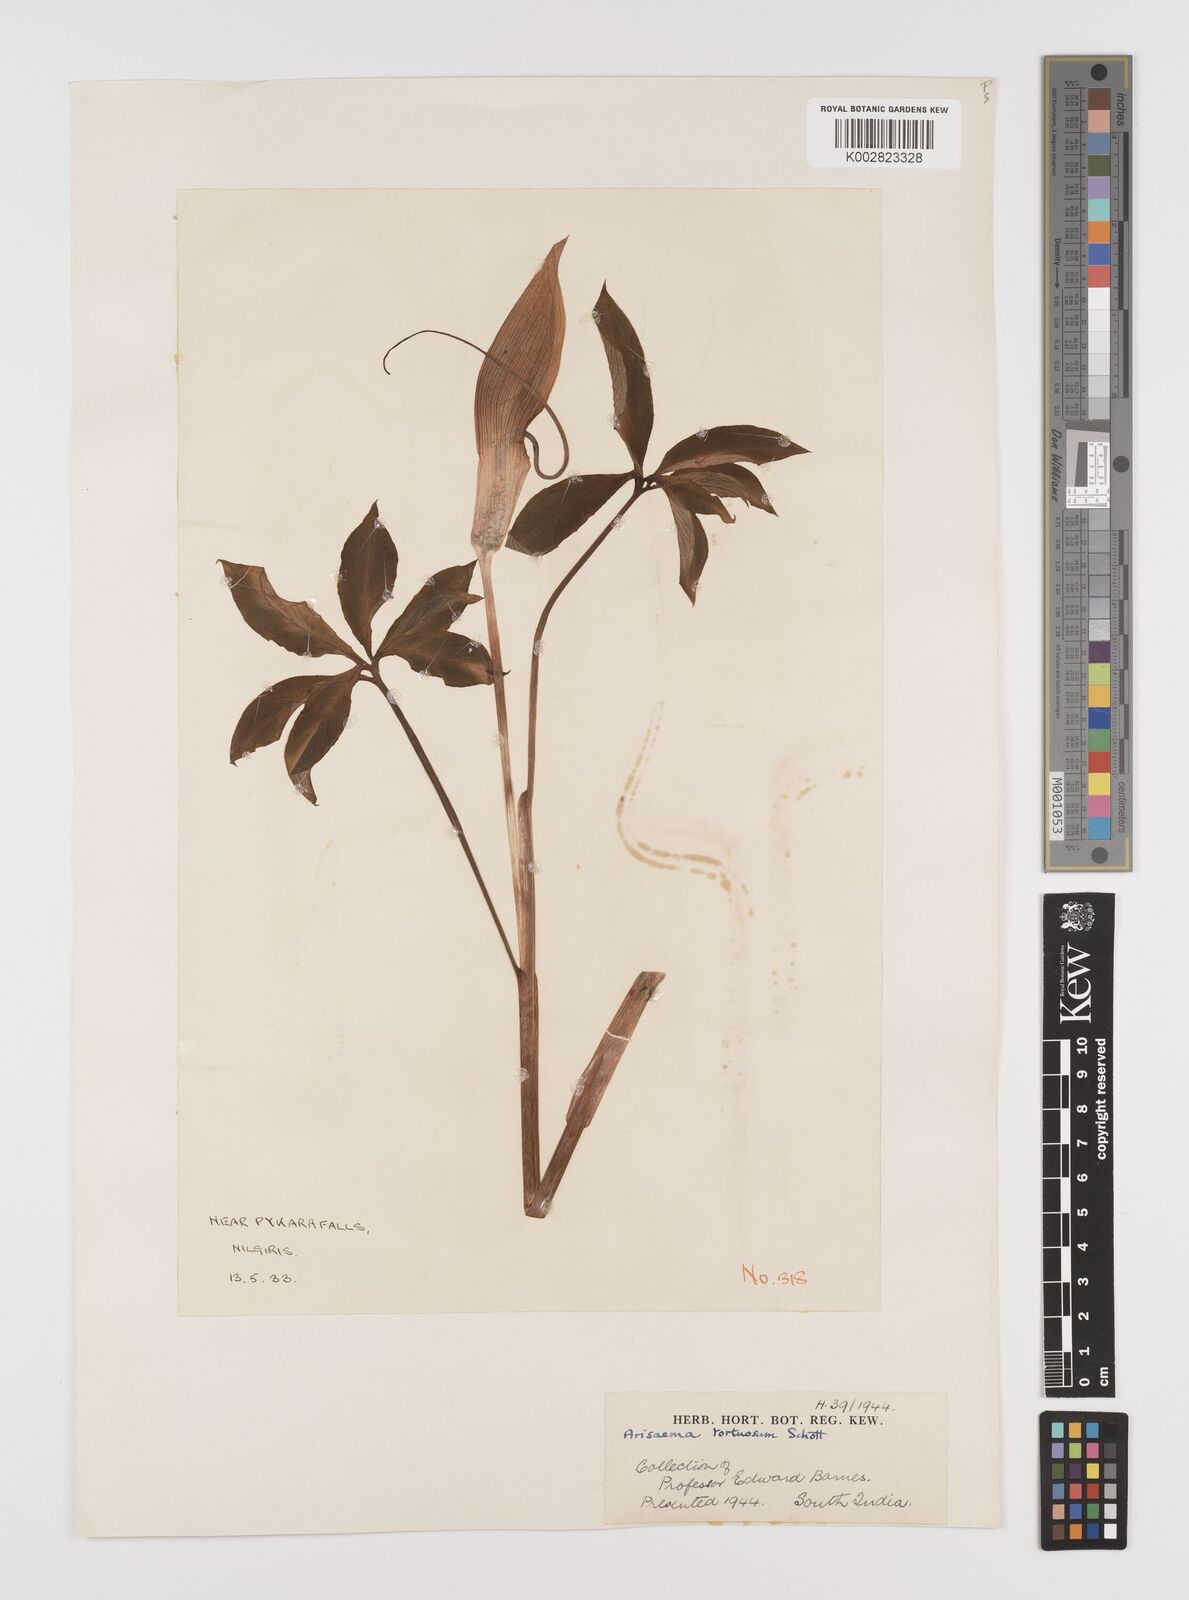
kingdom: Plantae
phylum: Tracheophyta
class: Liliopsida
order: Alismatales
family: Araceae
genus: Arisaema
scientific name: Arisaema tortuosum
